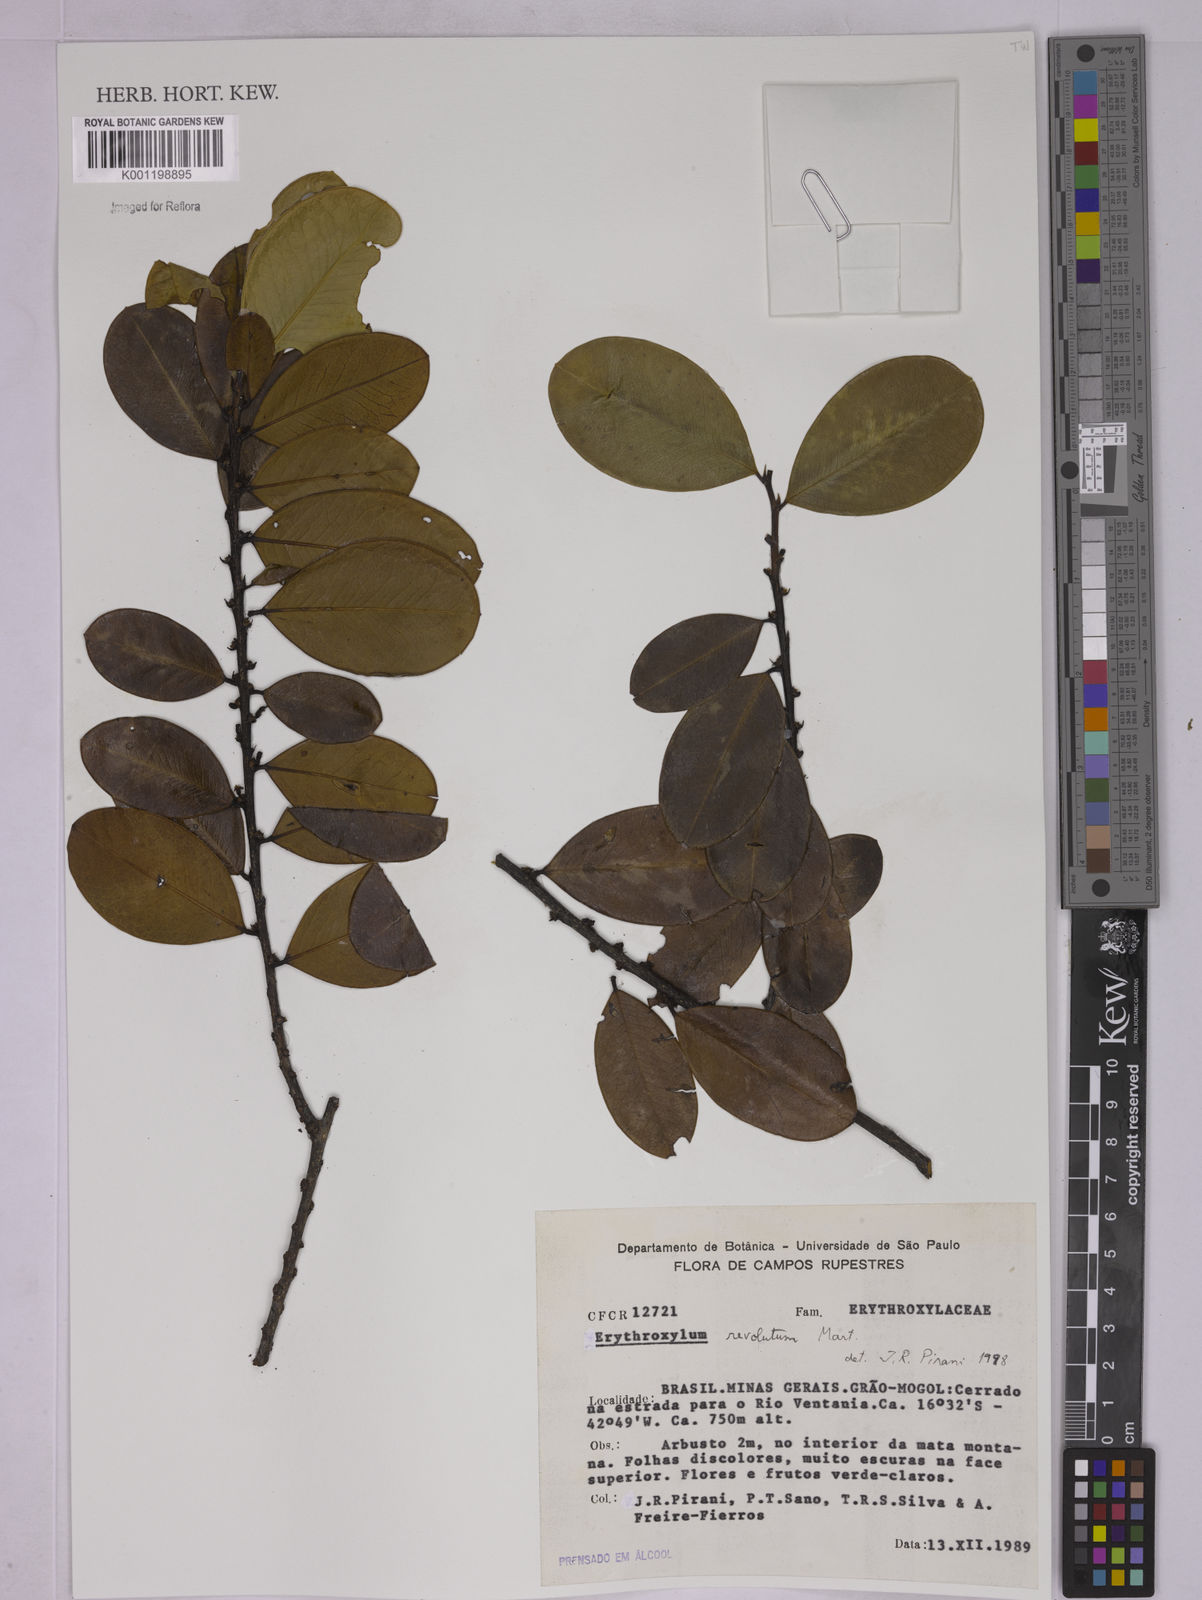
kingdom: Plantae
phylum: Tracheophyta
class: Magnoliopsida
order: Malpighiales
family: Erythroxylaceae
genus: Erythroxylum
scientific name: Erythroxylum revolutum
